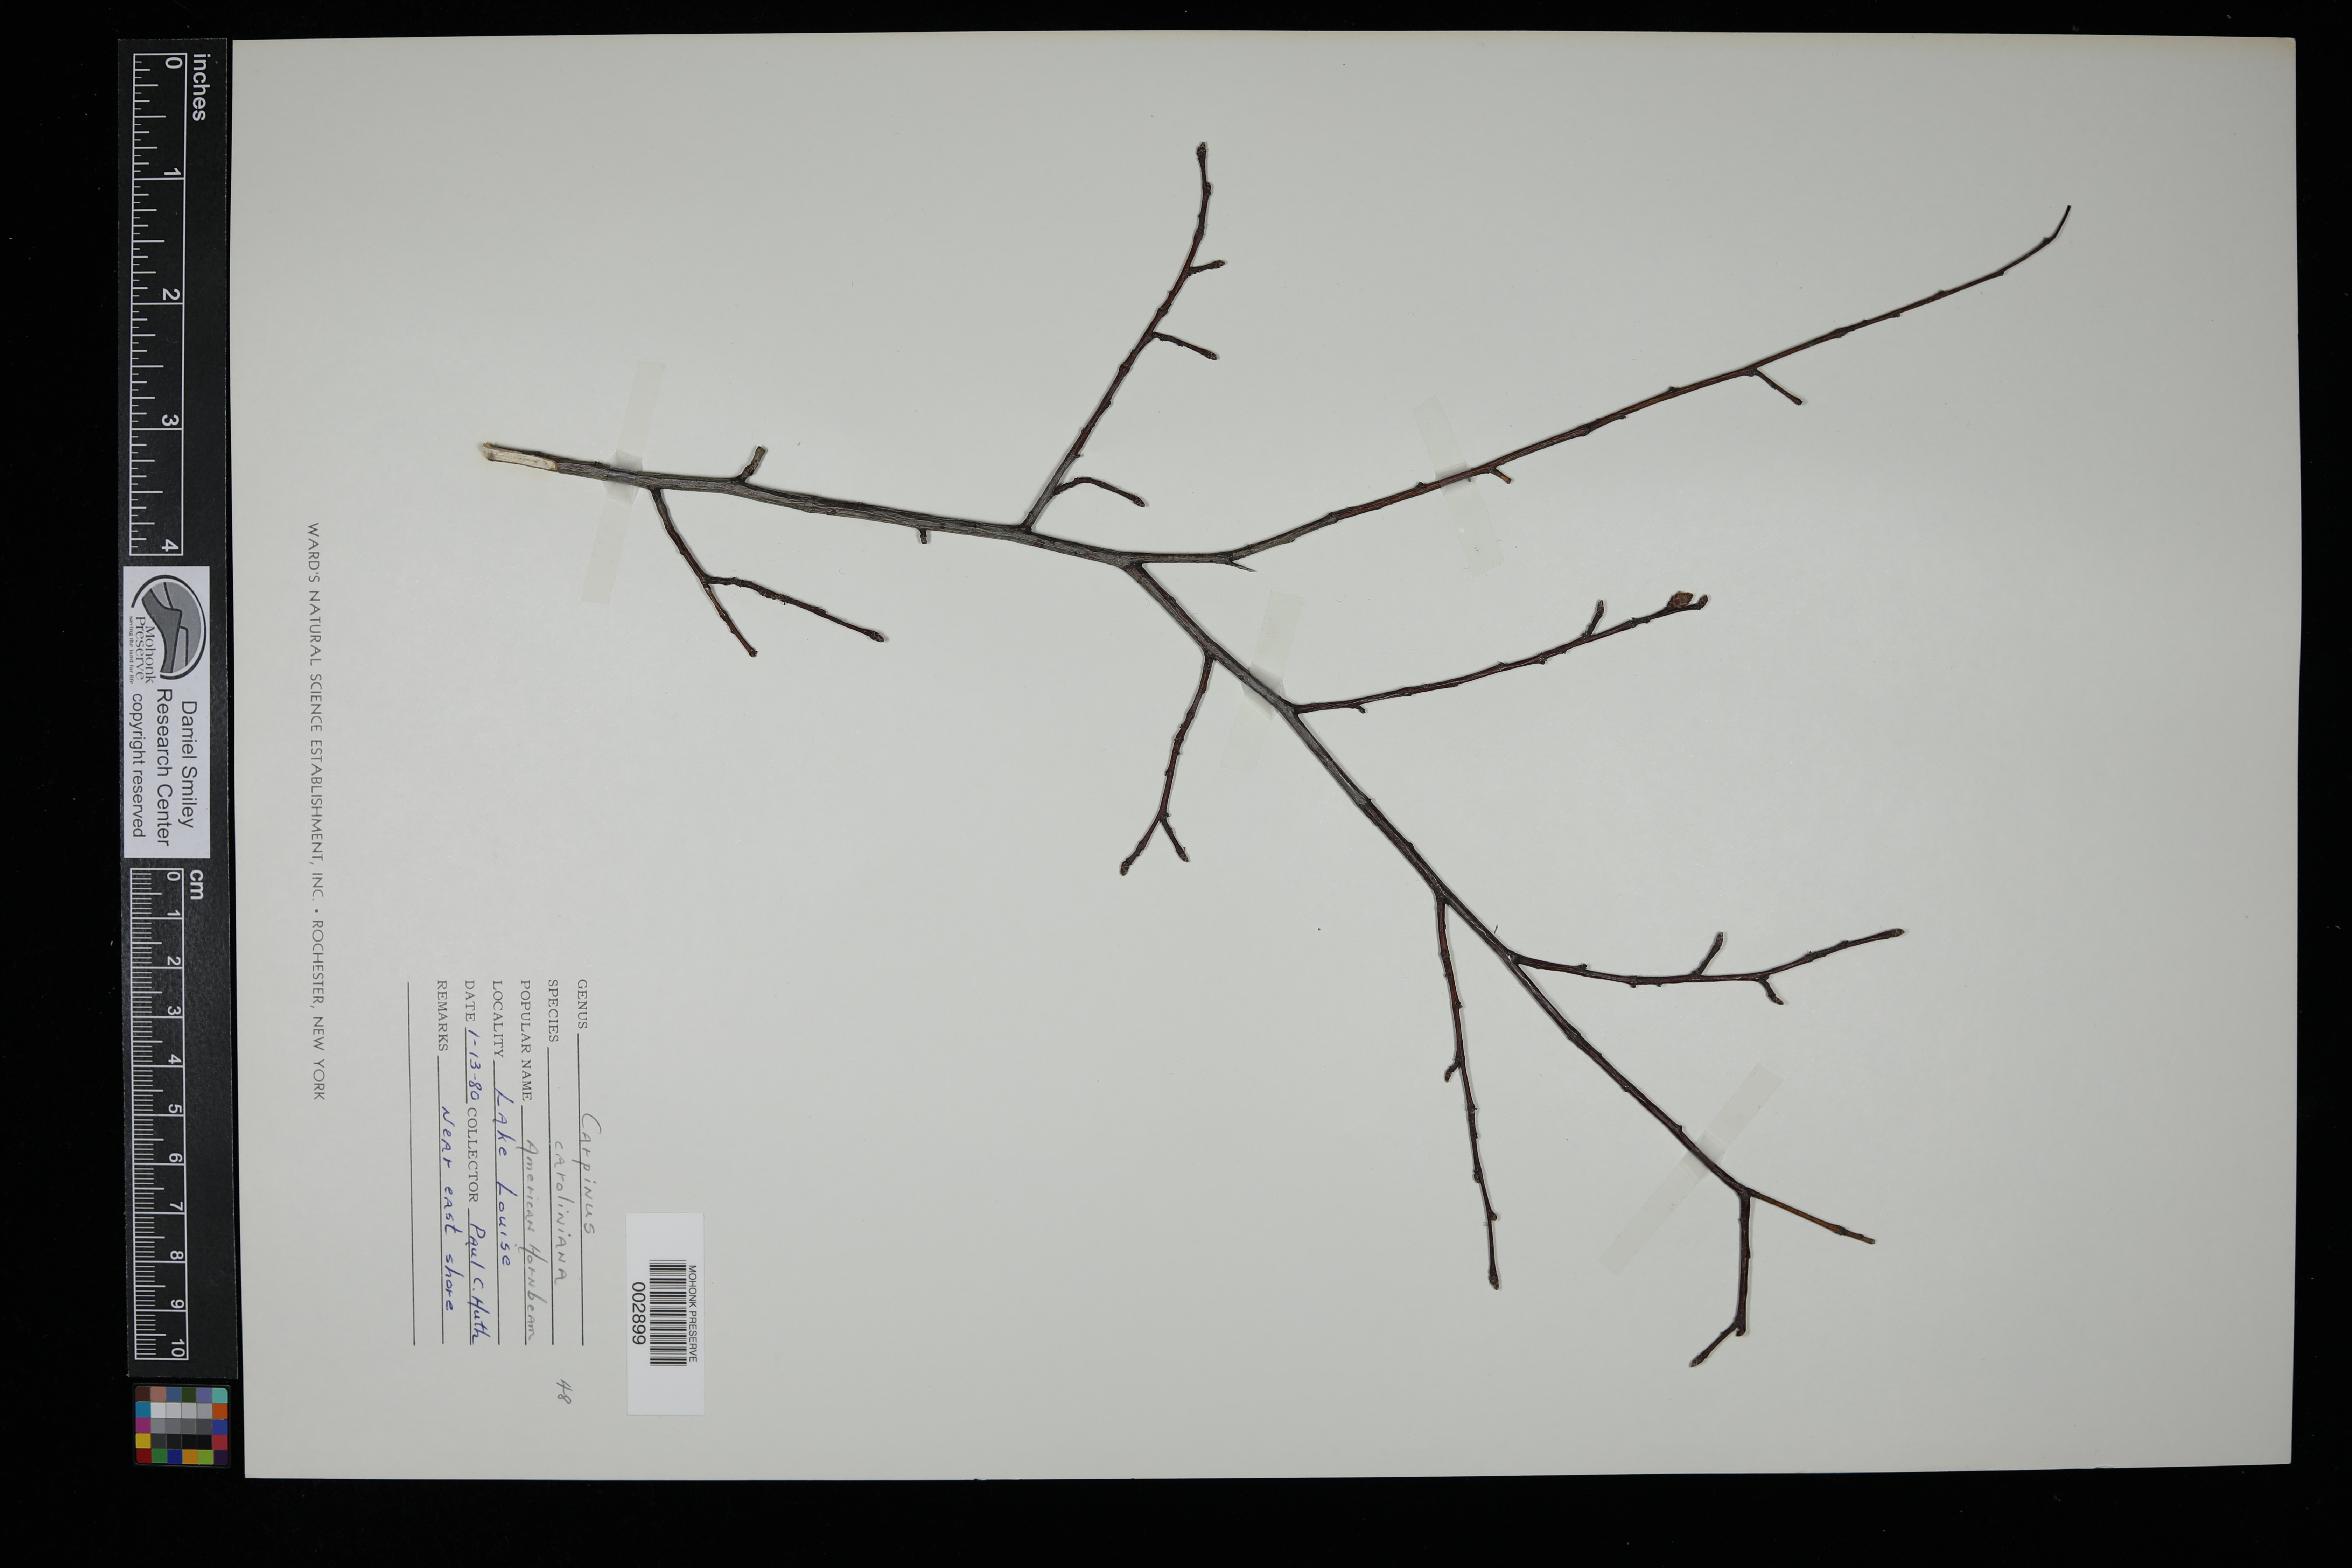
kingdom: Plantae
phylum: Tracheophyta
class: Magnoliopsida
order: Fagales
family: Betulaceae
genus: Carpinus
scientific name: Carpinus caroliniana
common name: American hornbeam
